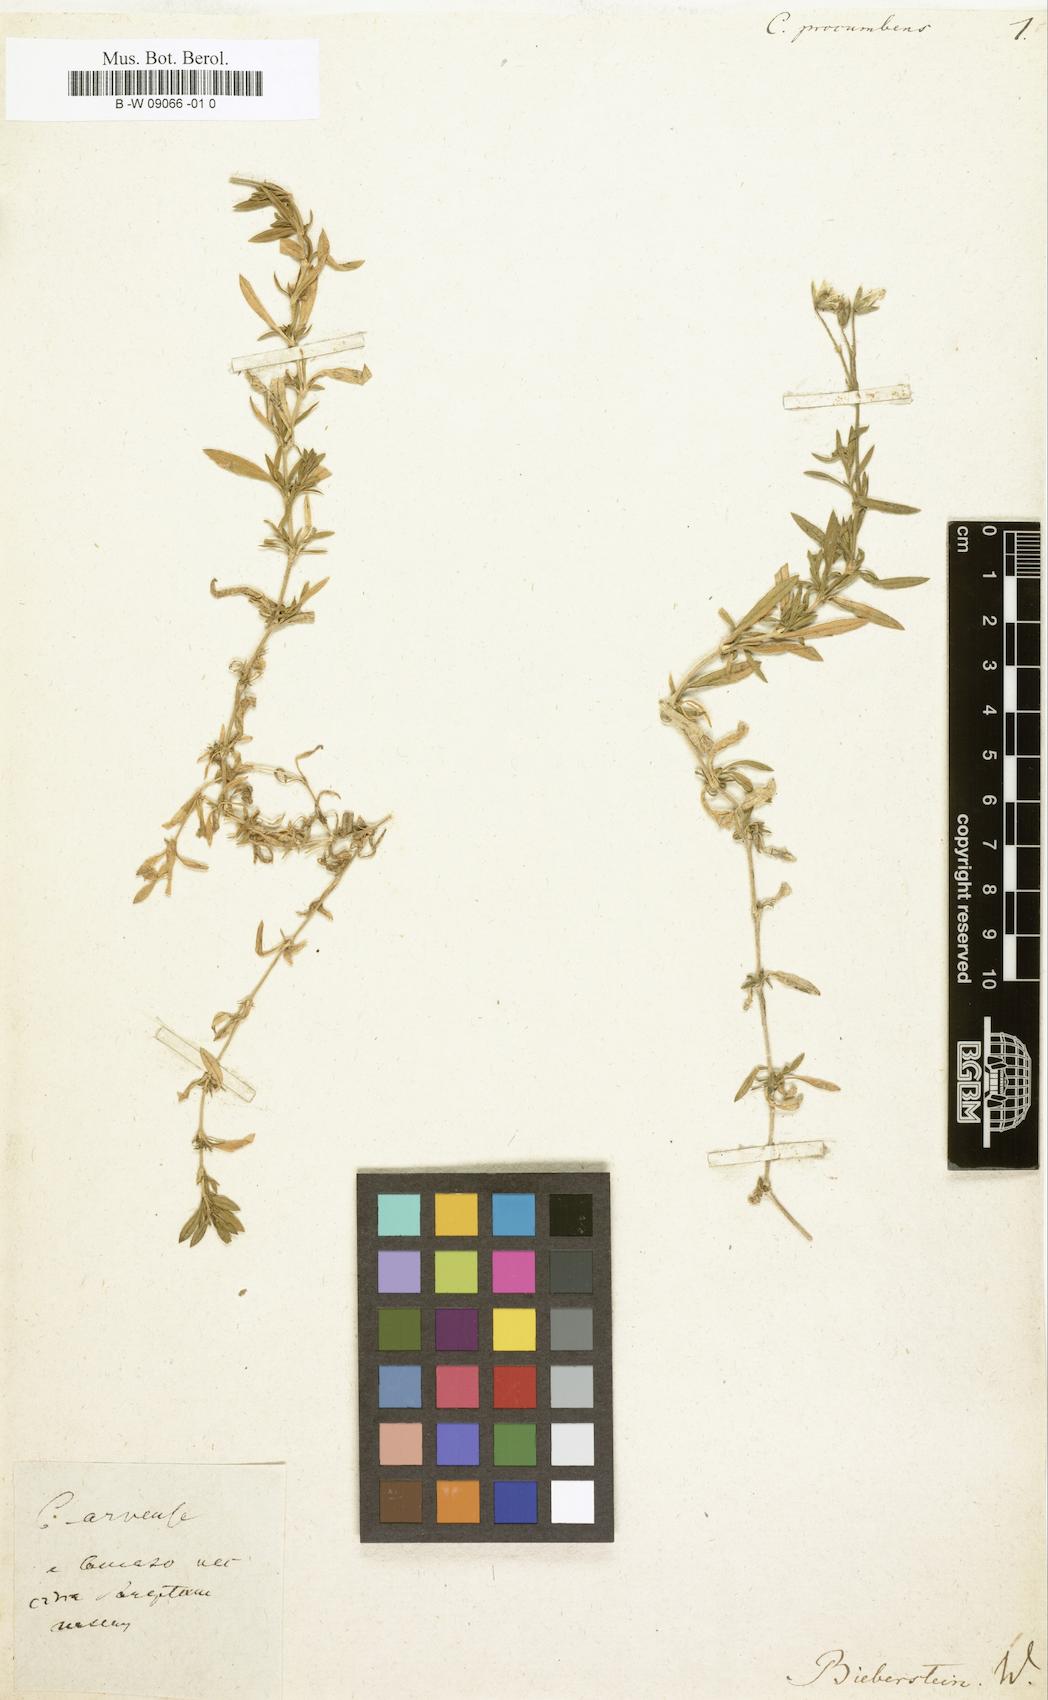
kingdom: Plantae
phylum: Tracheophyta
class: Magnoliopsida
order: Caryophyllales
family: Caryophyllaceae
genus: Cerastium
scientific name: Cerastium procumbens
